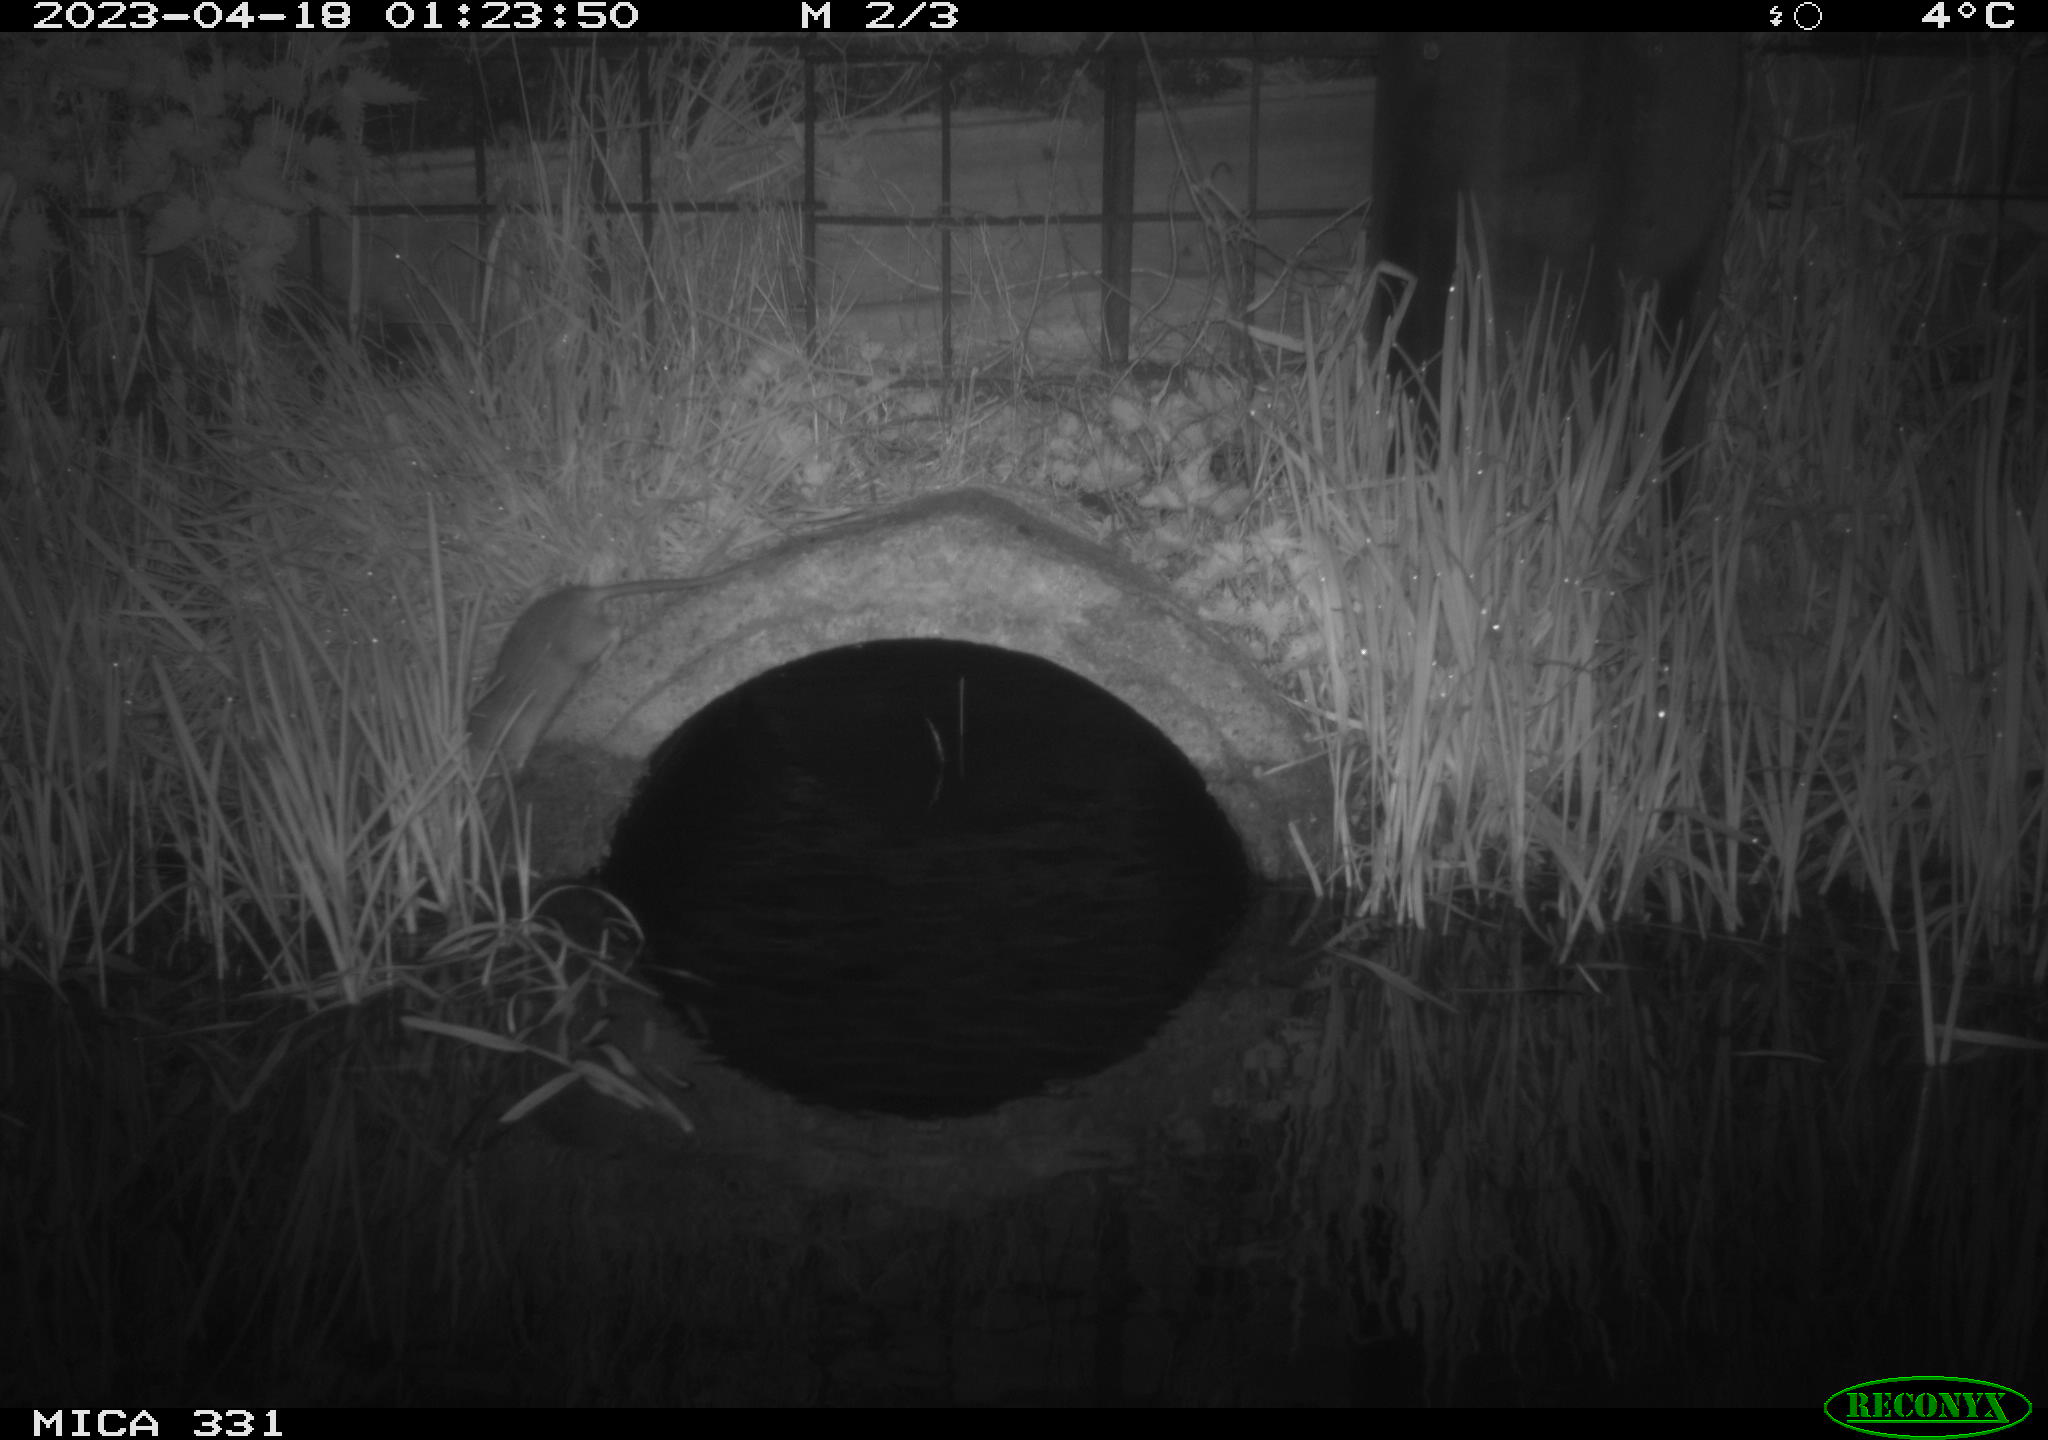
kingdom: Animalia
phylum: Chordata
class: Mammalia
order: Rodentia
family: Muridae
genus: Rattus
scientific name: Rattus norvegicus
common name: Brown rat
